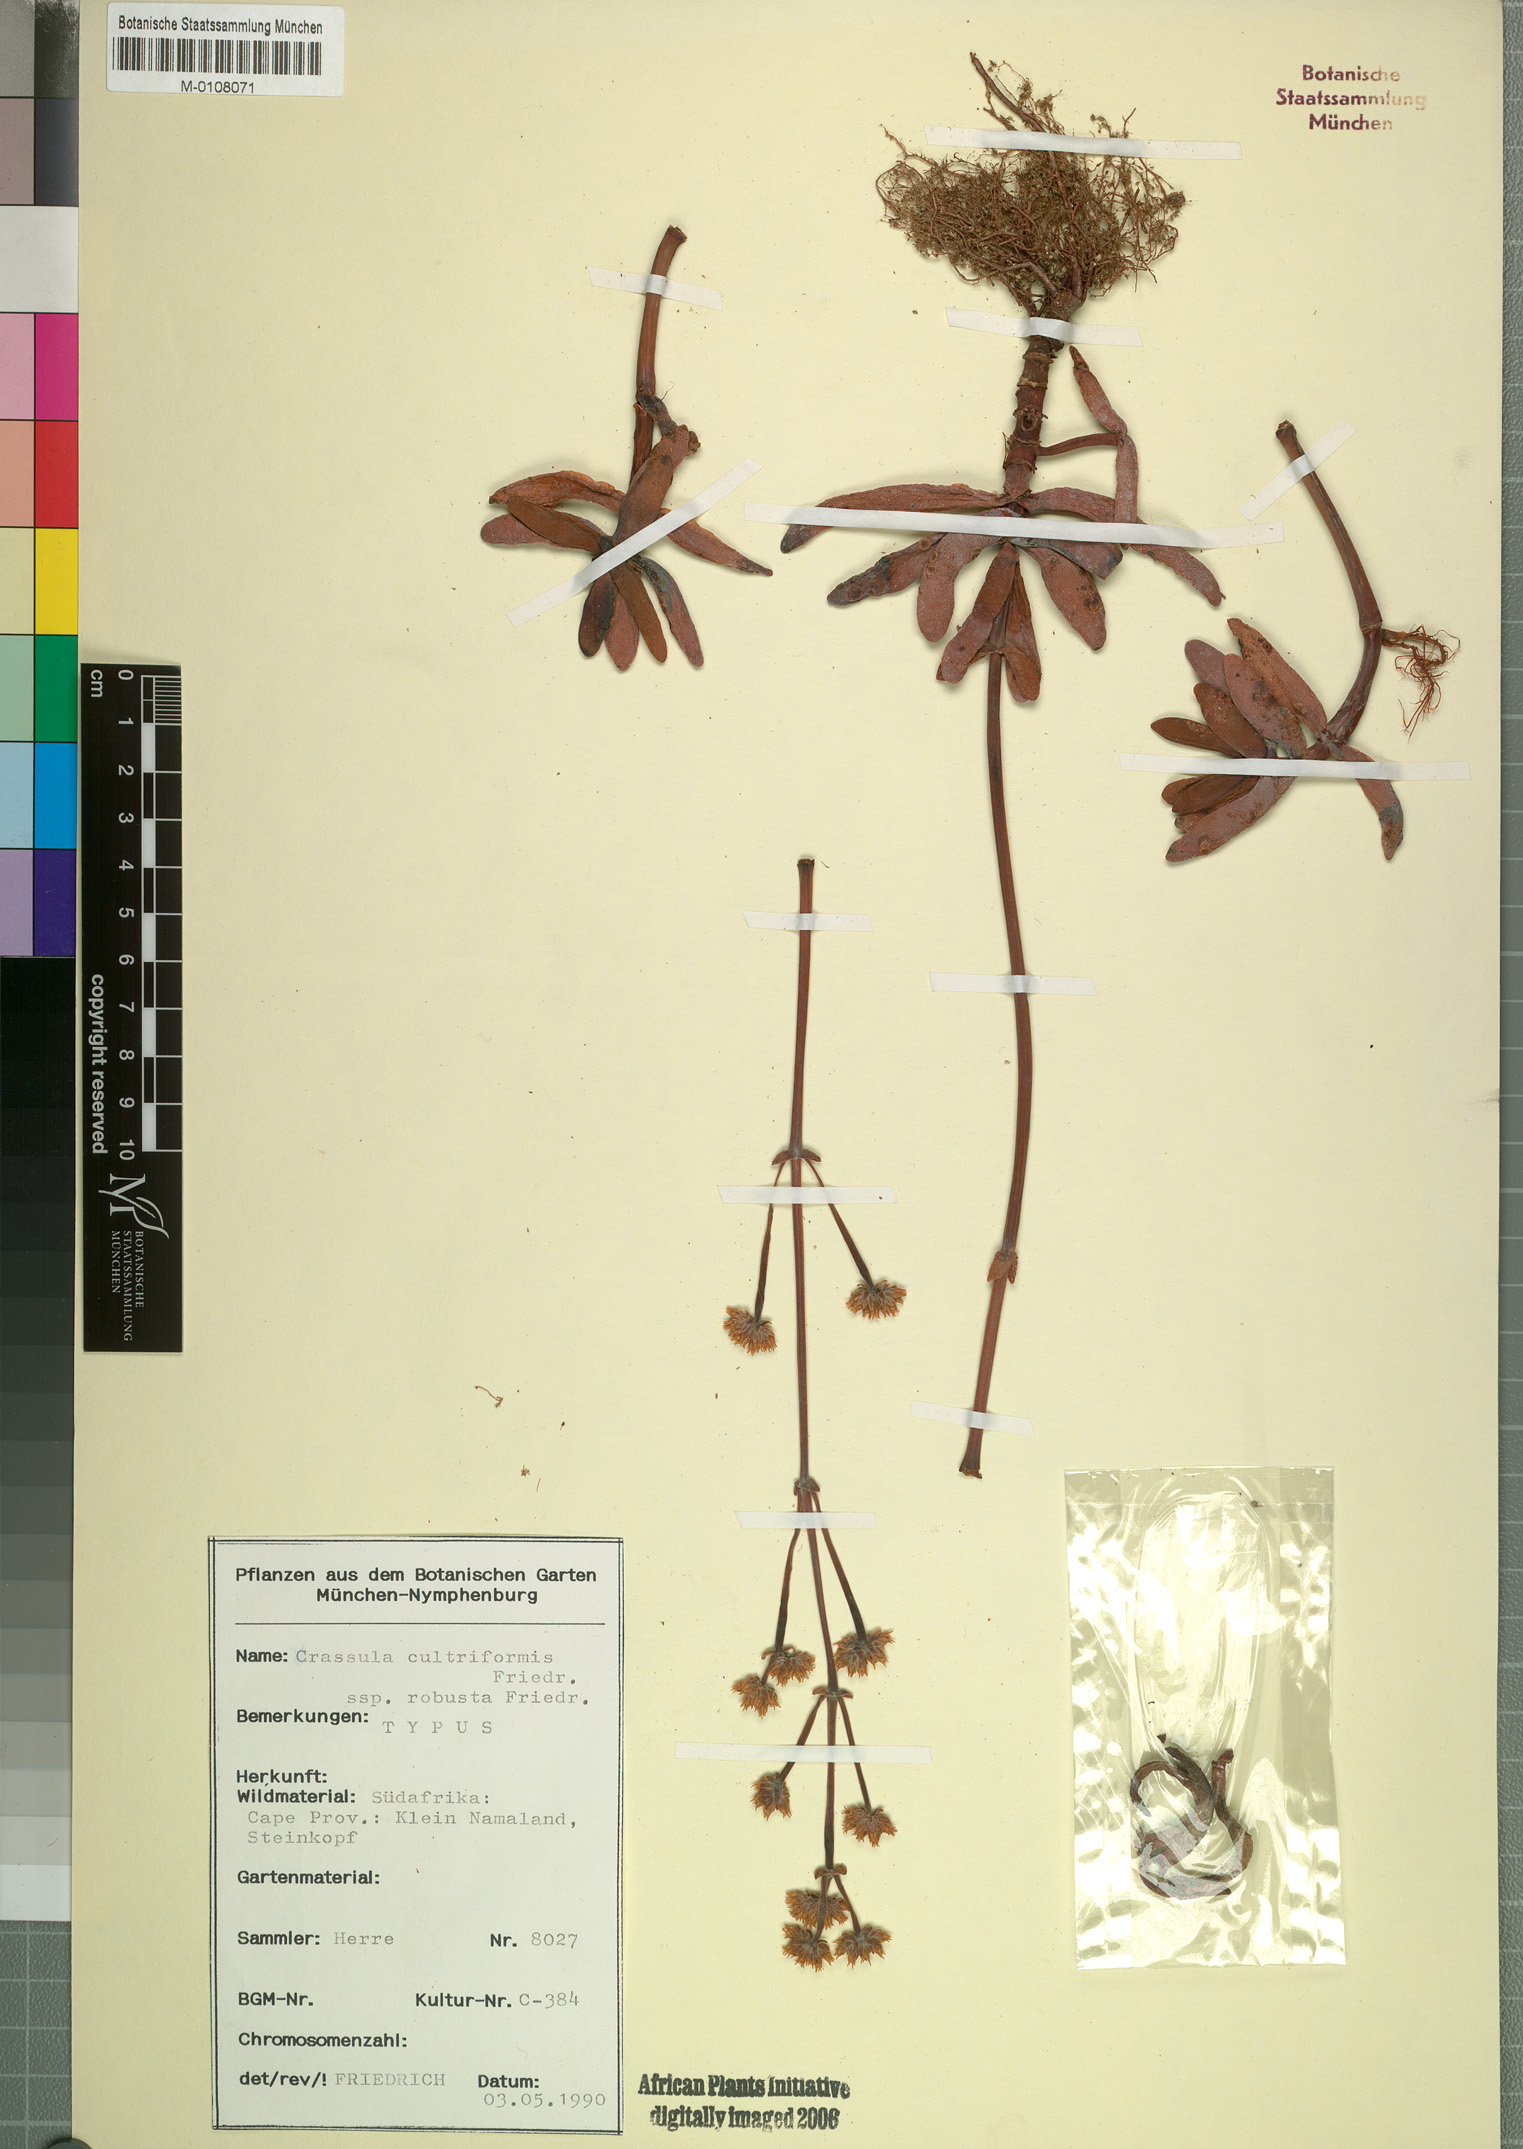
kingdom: Plantae
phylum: Tracheophyta
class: Magnoliopsida
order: Saxifragales
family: Crassulaceae
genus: Crassula
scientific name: Crassula atropurpurea
